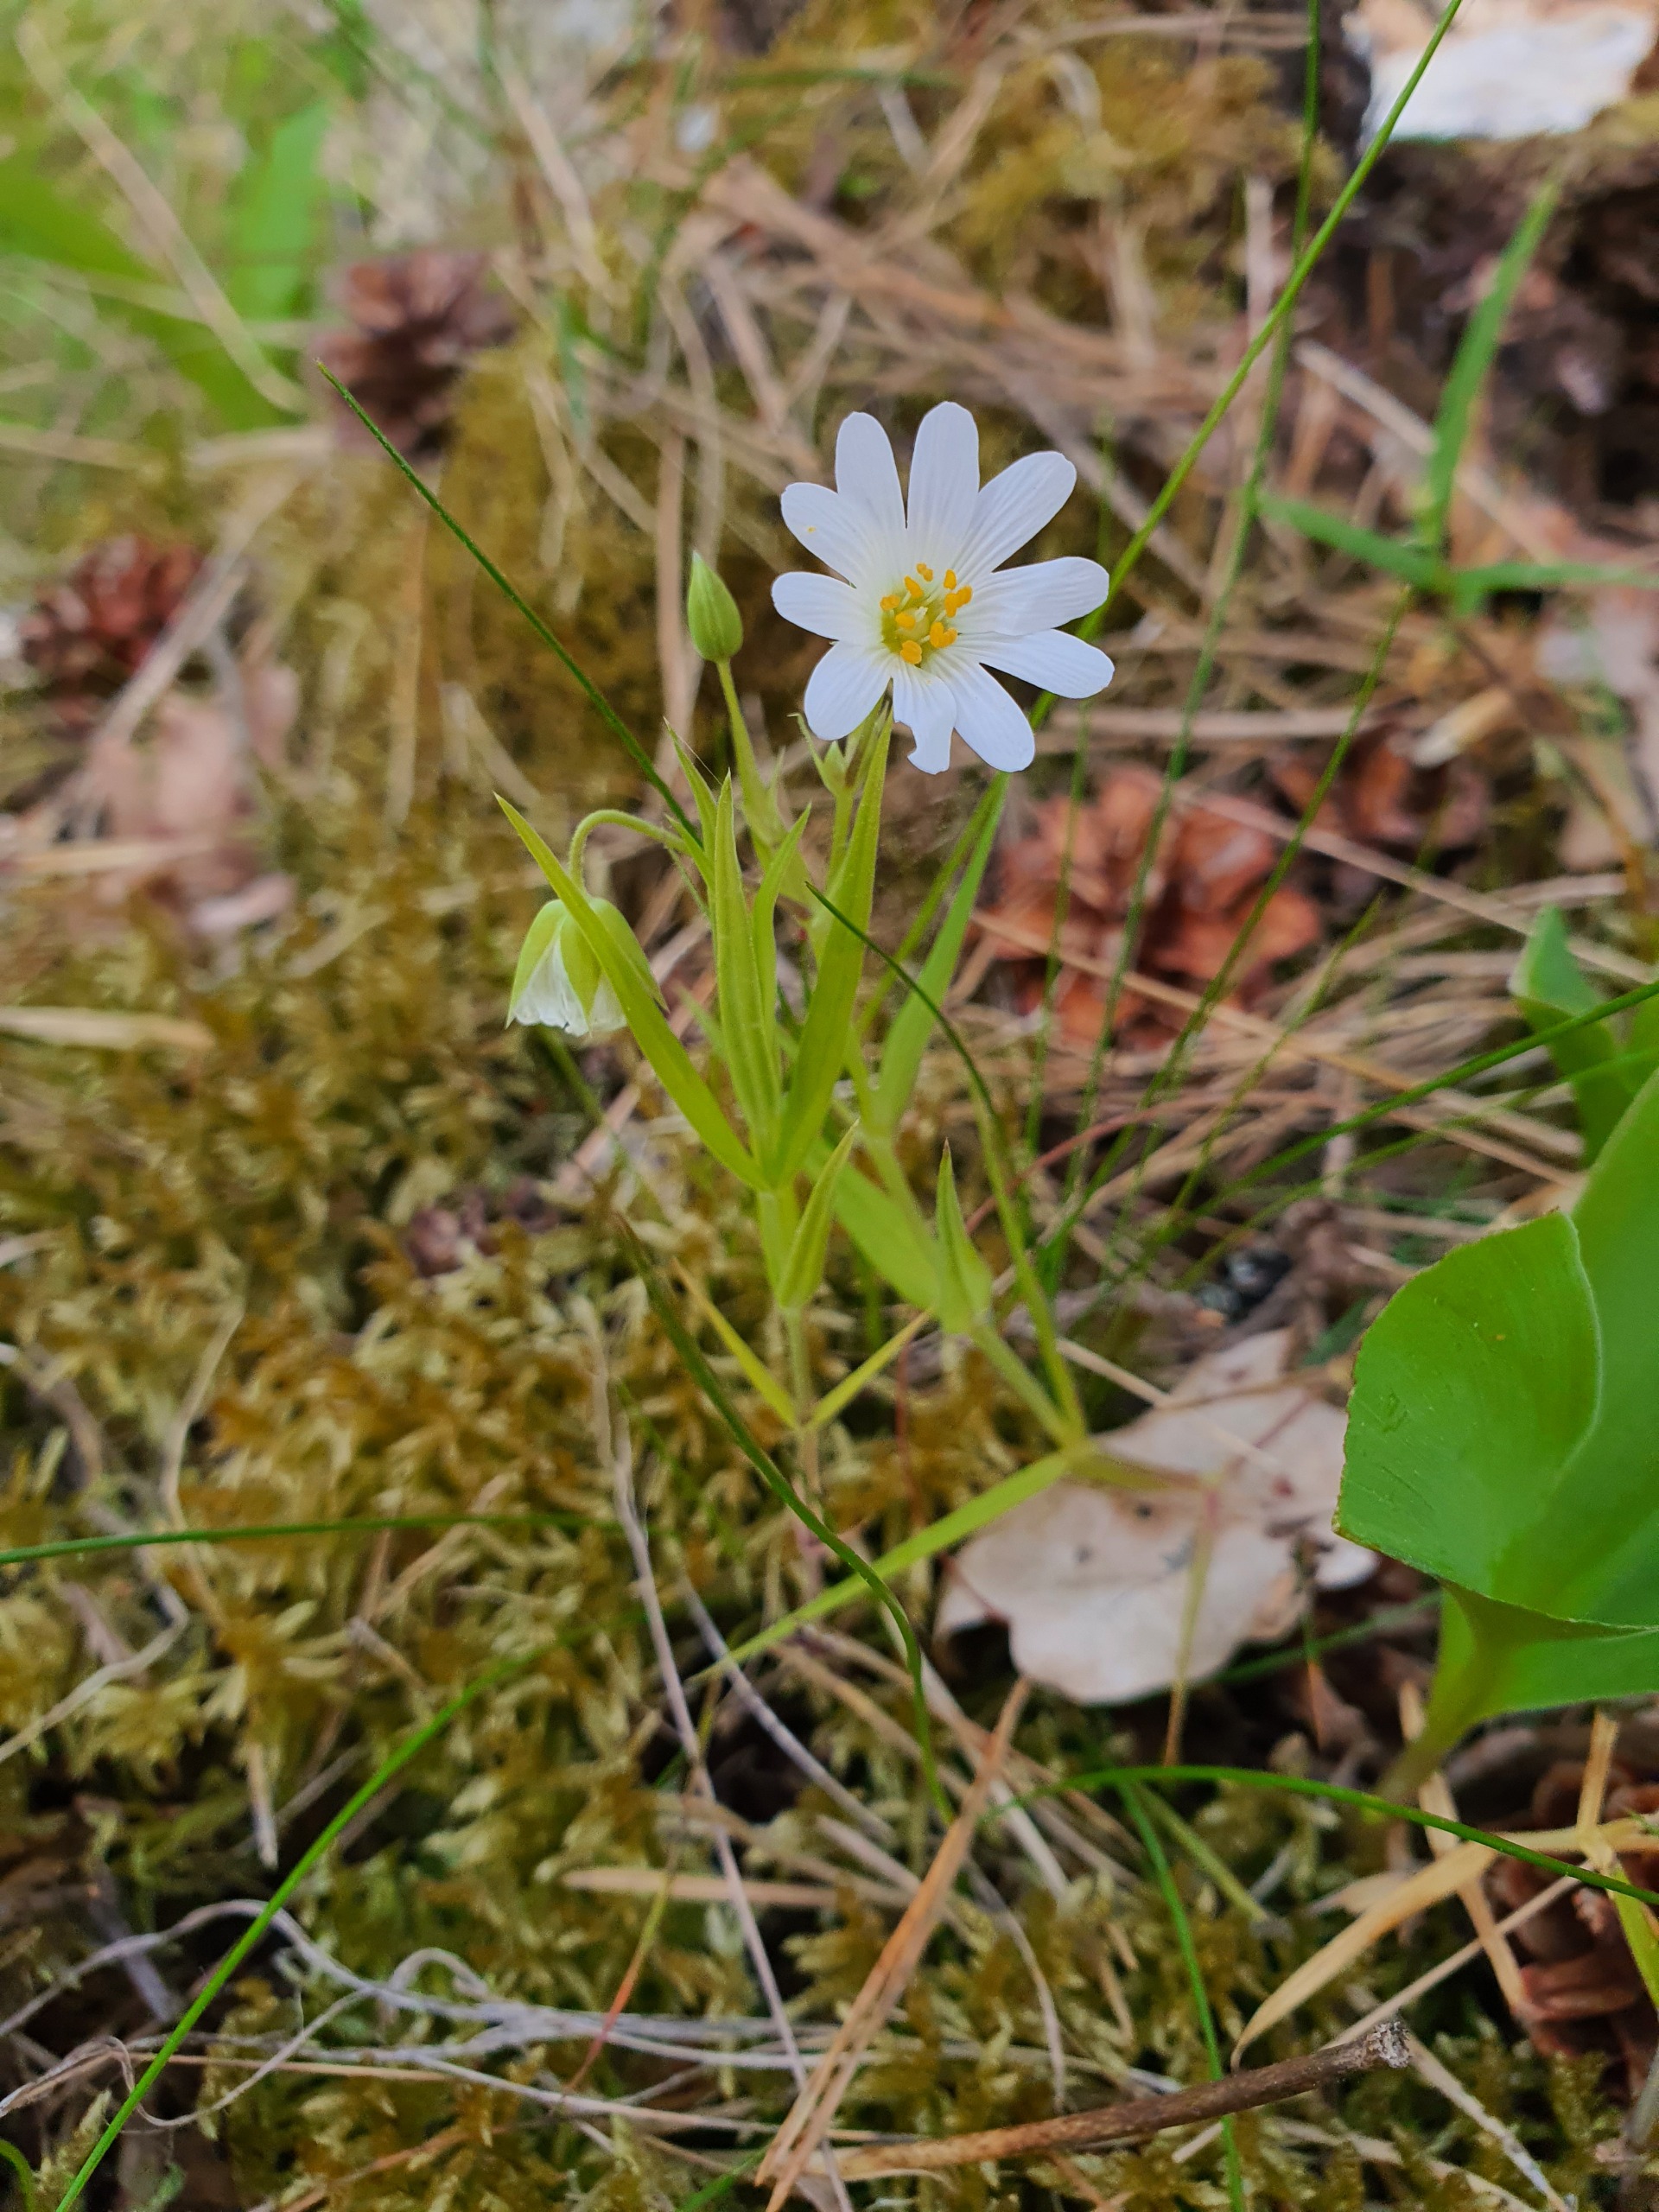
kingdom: Plantae
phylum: Tracheophyta
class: Magnoliopsida
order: Caryophyllales
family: Caryophyllaceae
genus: Rabelera
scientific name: Rabelera holostea
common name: Stor fladstjerne
